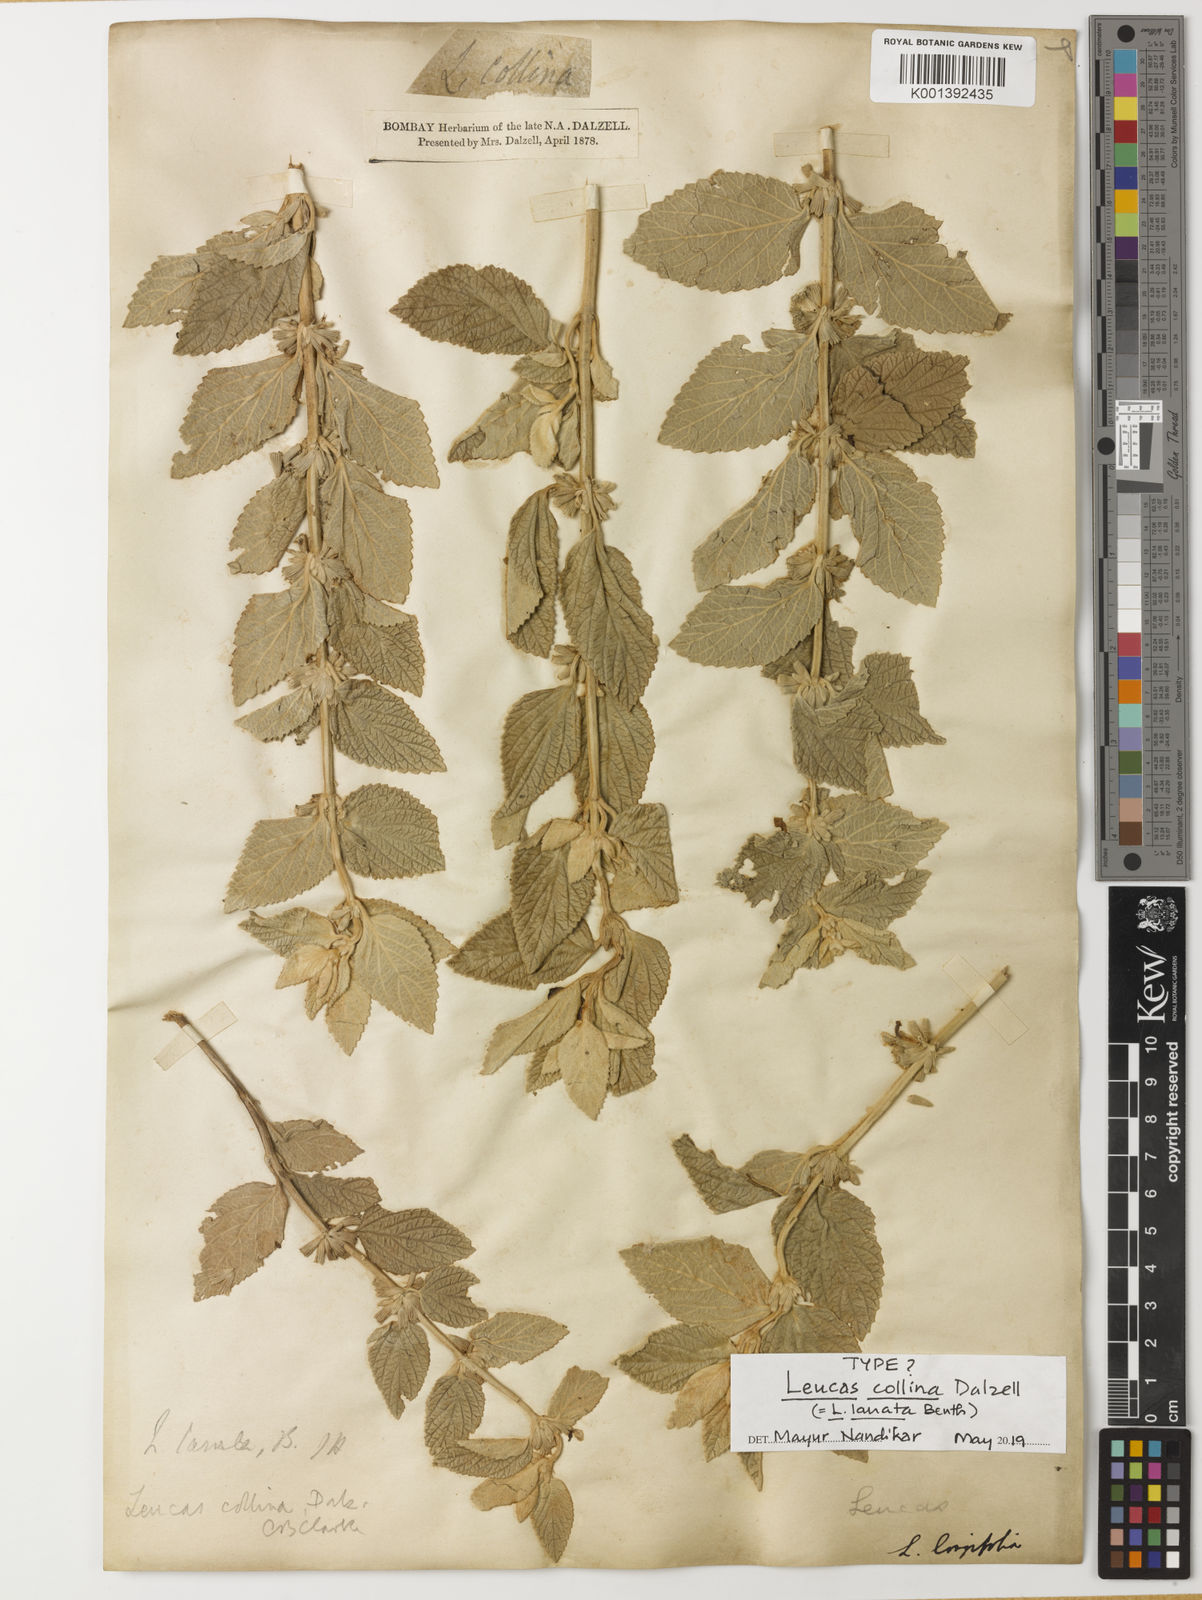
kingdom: Plantae
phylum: Tracheophyta
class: Magnoliopsida
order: Lamiales
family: Lamiaceae
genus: Leucas
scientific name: Leucas lanata
